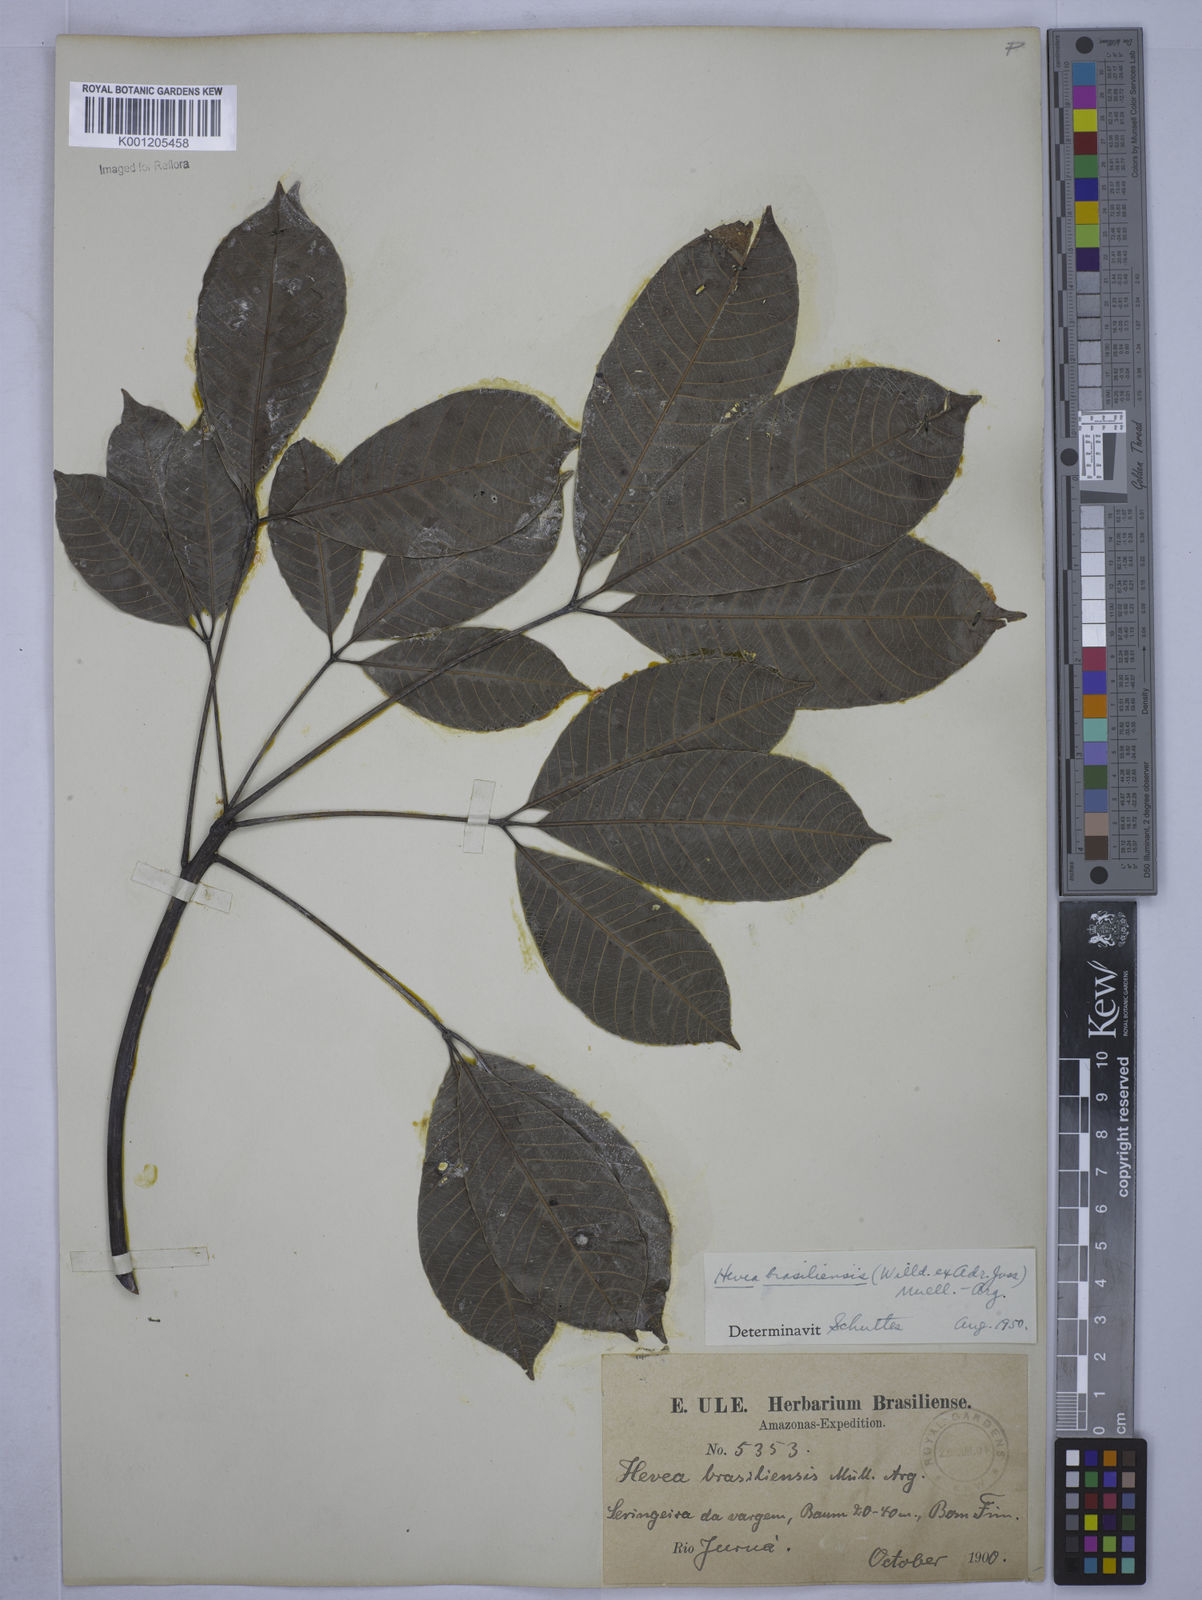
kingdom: Plantae
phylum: Tracheophyta
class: Magnoliopsida
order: Malpighiales
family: Euphorbiaceae
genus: Hevea
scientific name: Hevea brasiliensis
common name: Natural rubber
